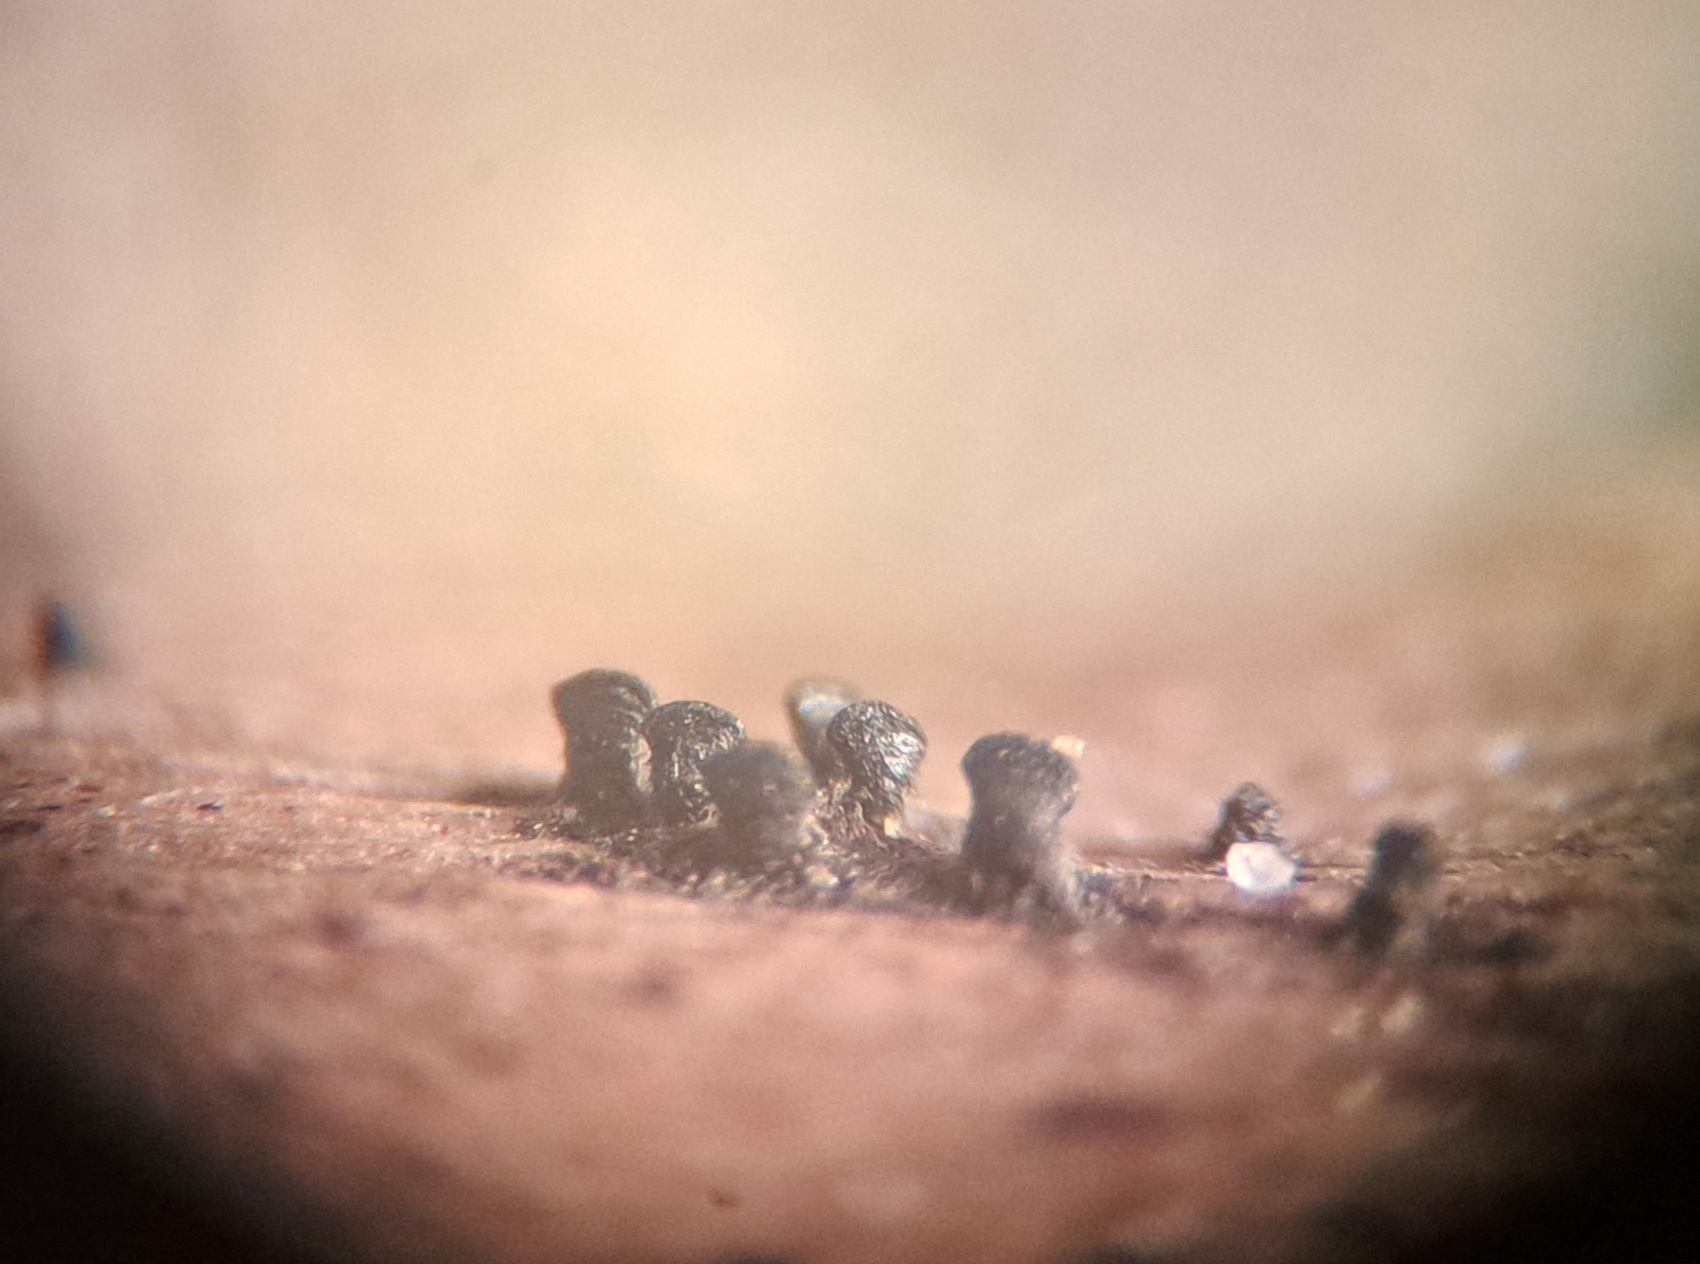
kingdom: Fungi
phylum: Ascomycota
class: Eurotiomycetes
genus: Glyphium
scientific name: Glyphium elatum
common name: kuløkse
